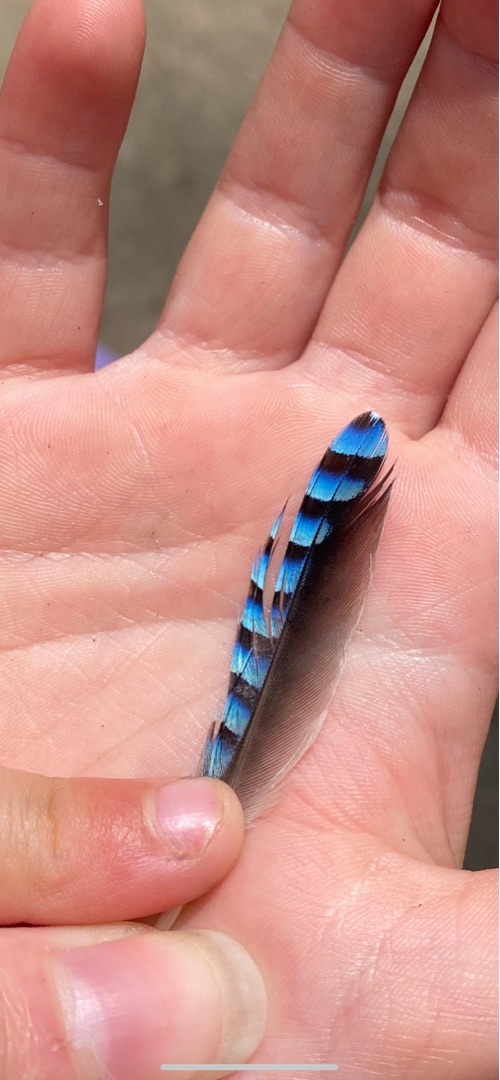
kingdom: Animalia
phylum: Chordata
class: Aves
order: Passeriformes
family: Corvidae
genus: Garrulus
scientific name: Garrulus glandarius
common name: Skovskade
